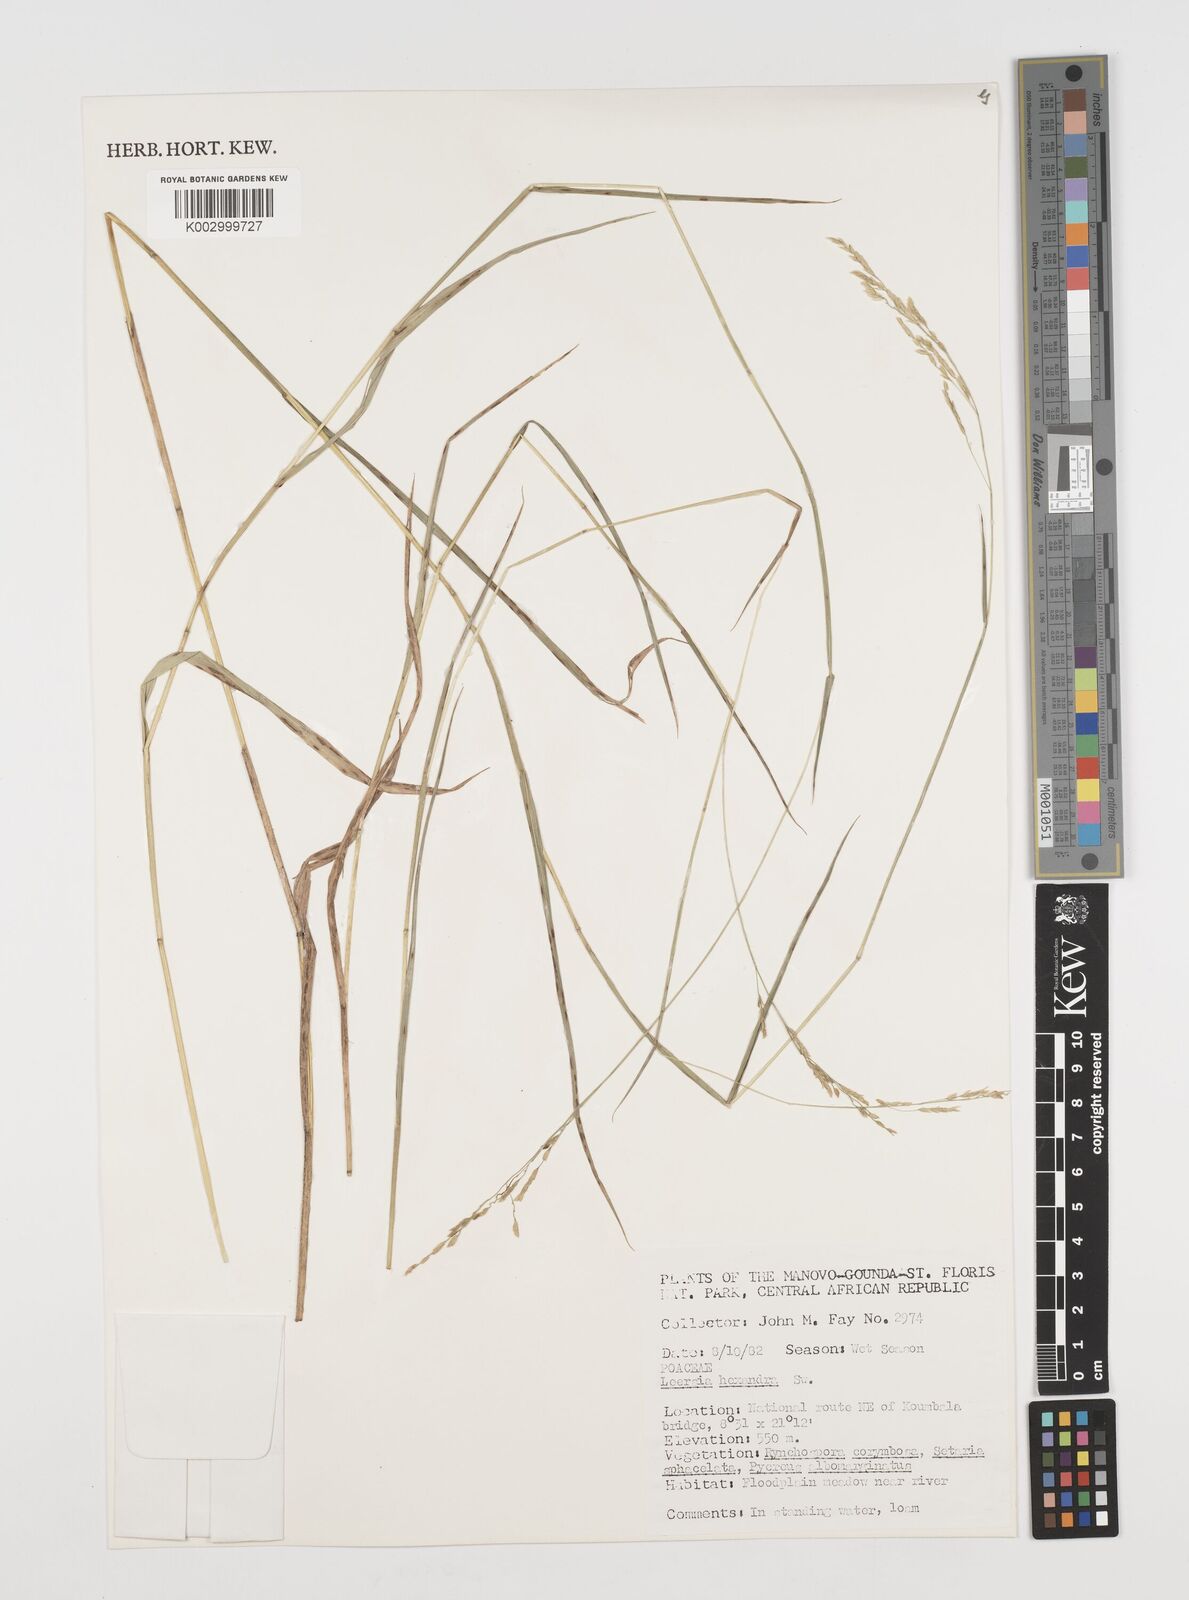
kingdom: Plantae
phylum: Tracheophyta
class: Liliopsida
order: Poales
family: Poaceae
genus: Leersia
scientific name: Leersia hexandra
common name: Southern cut grass
